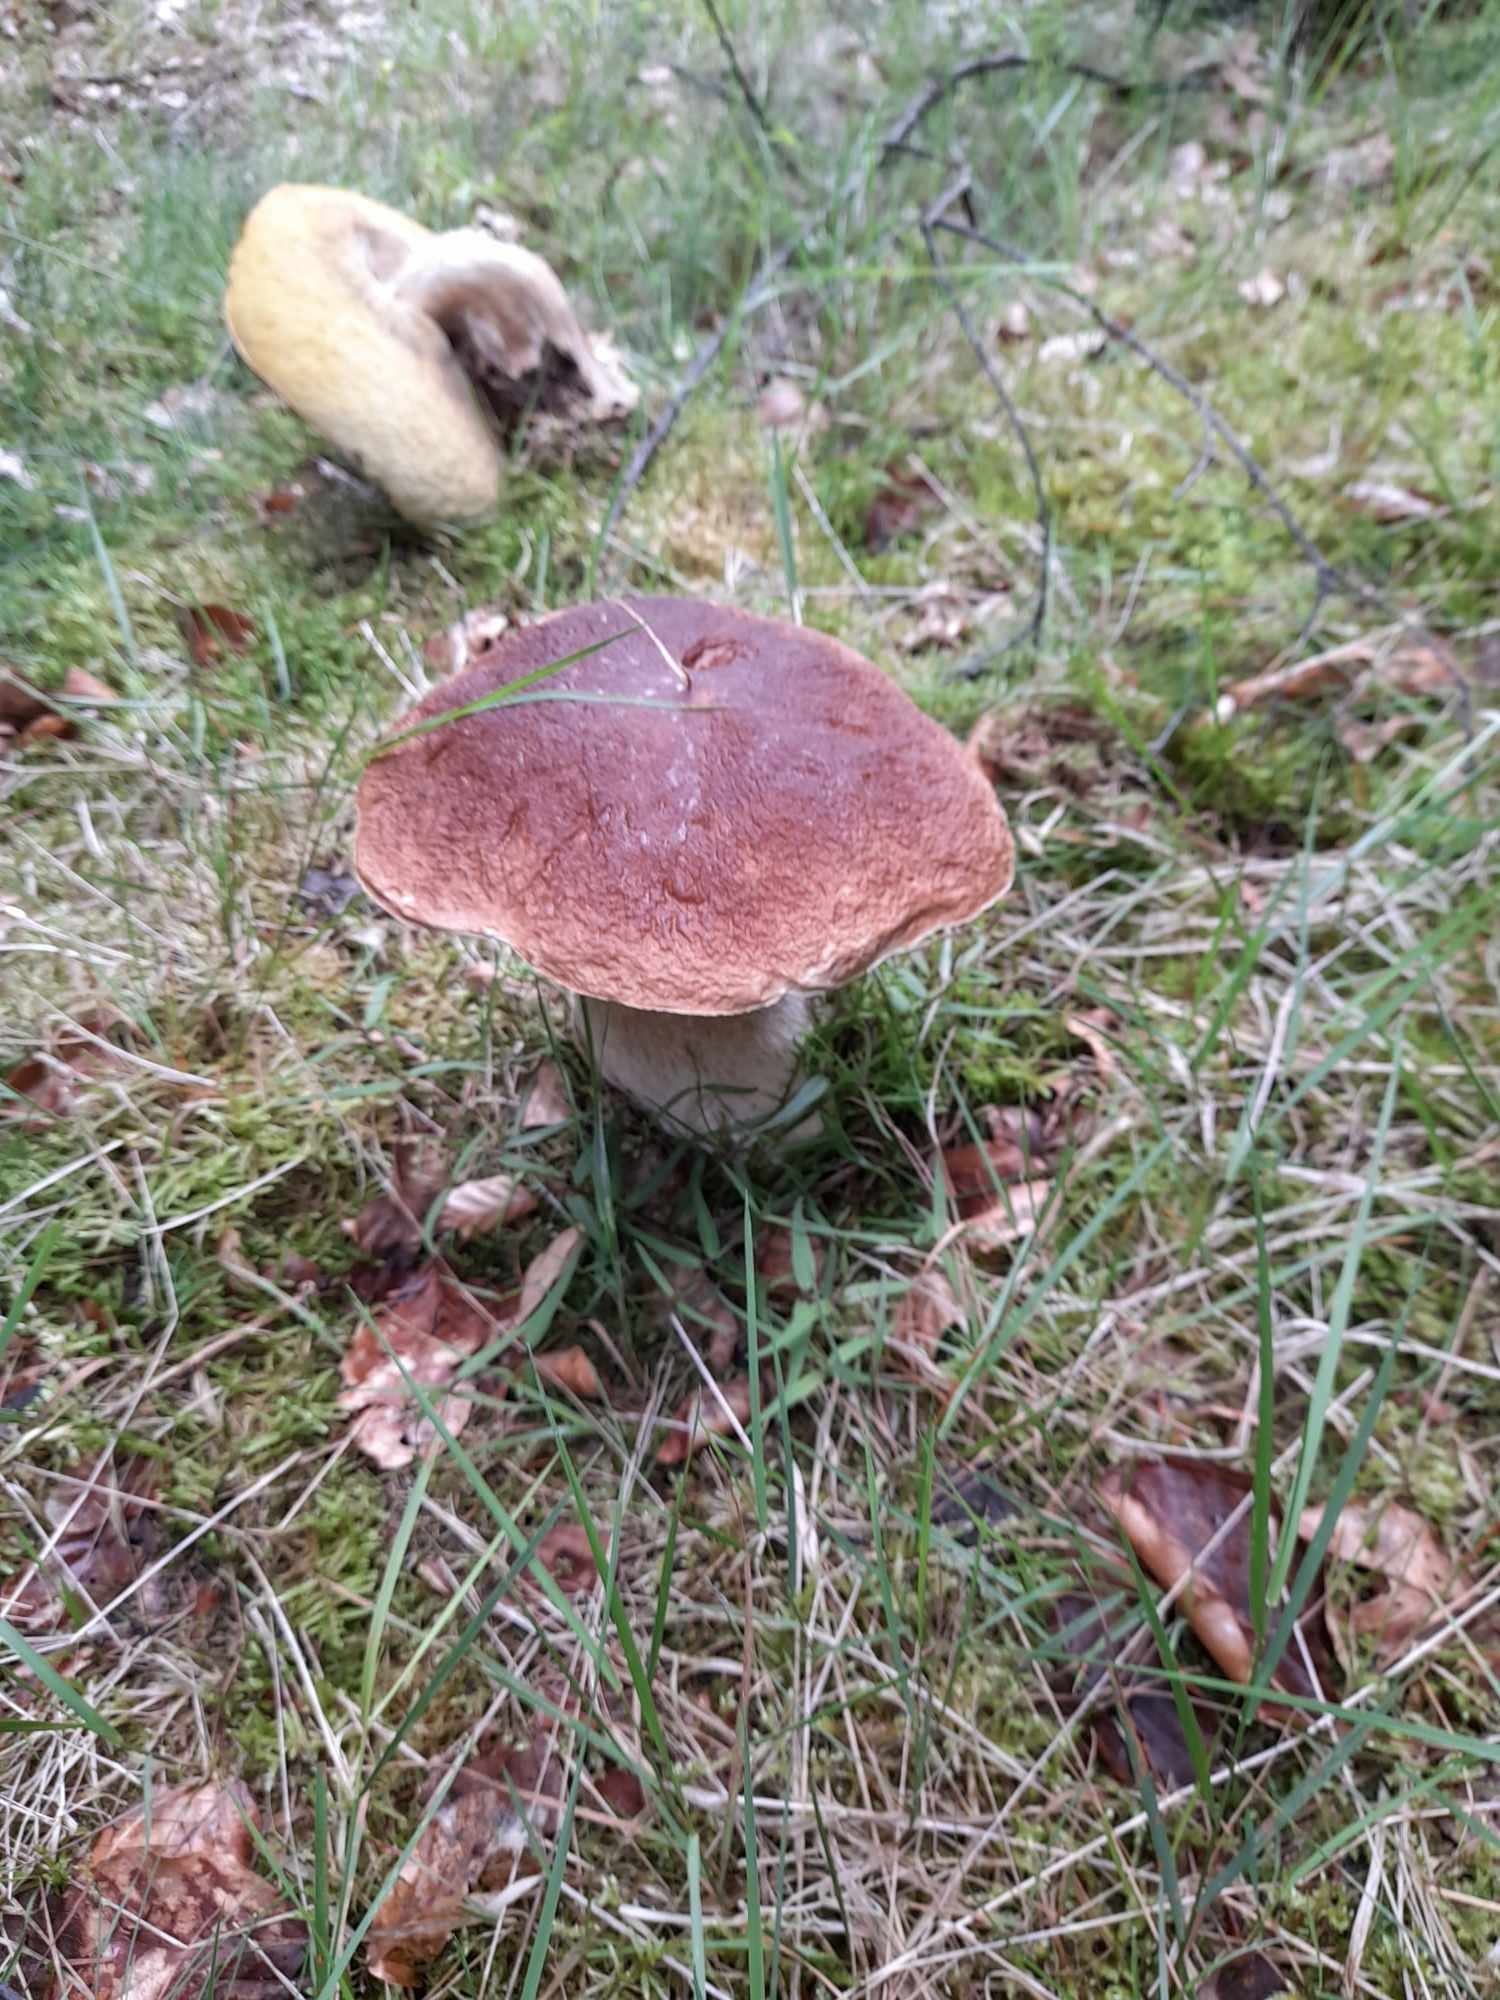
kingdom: Fungi
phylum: Basidiomycota
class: Agaricomycetes
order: Boletales
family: Boletaceae
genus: Boletus
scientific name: Boletus
